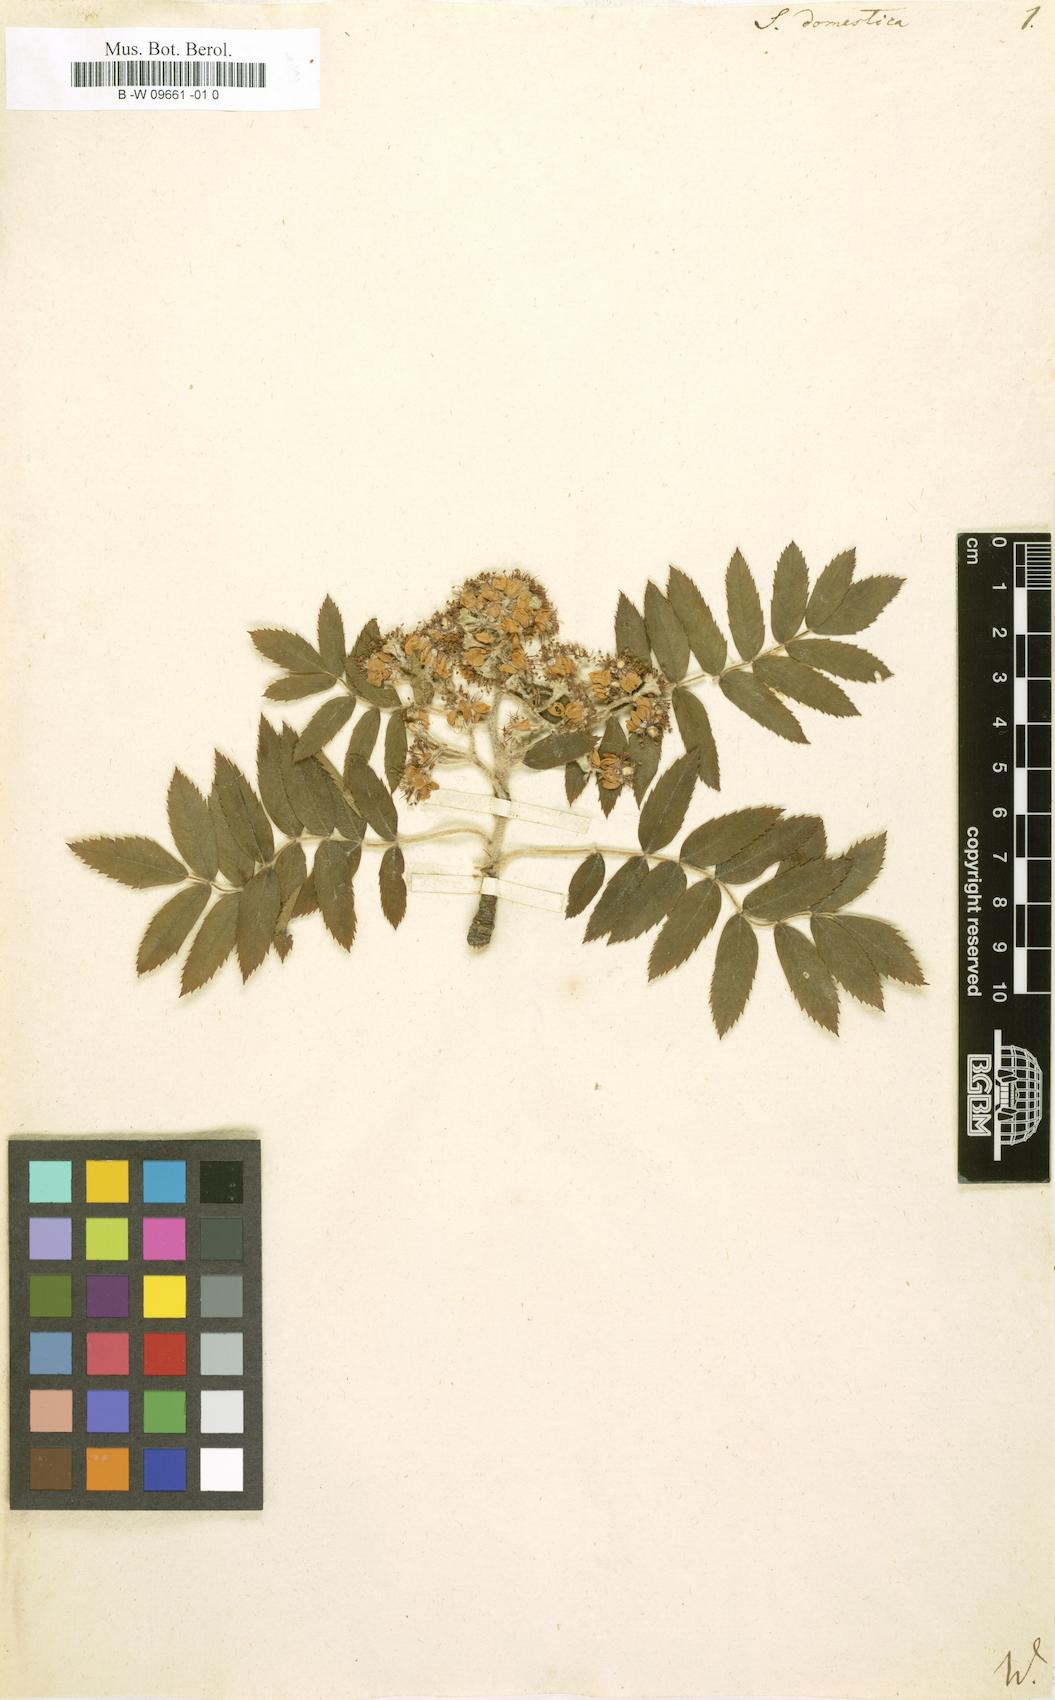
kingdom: Plantae
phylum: Tracheophyta
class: Magnoliopsida
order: Rosales
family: Rosaceae
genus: Cormus
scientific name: Cormus domestica
